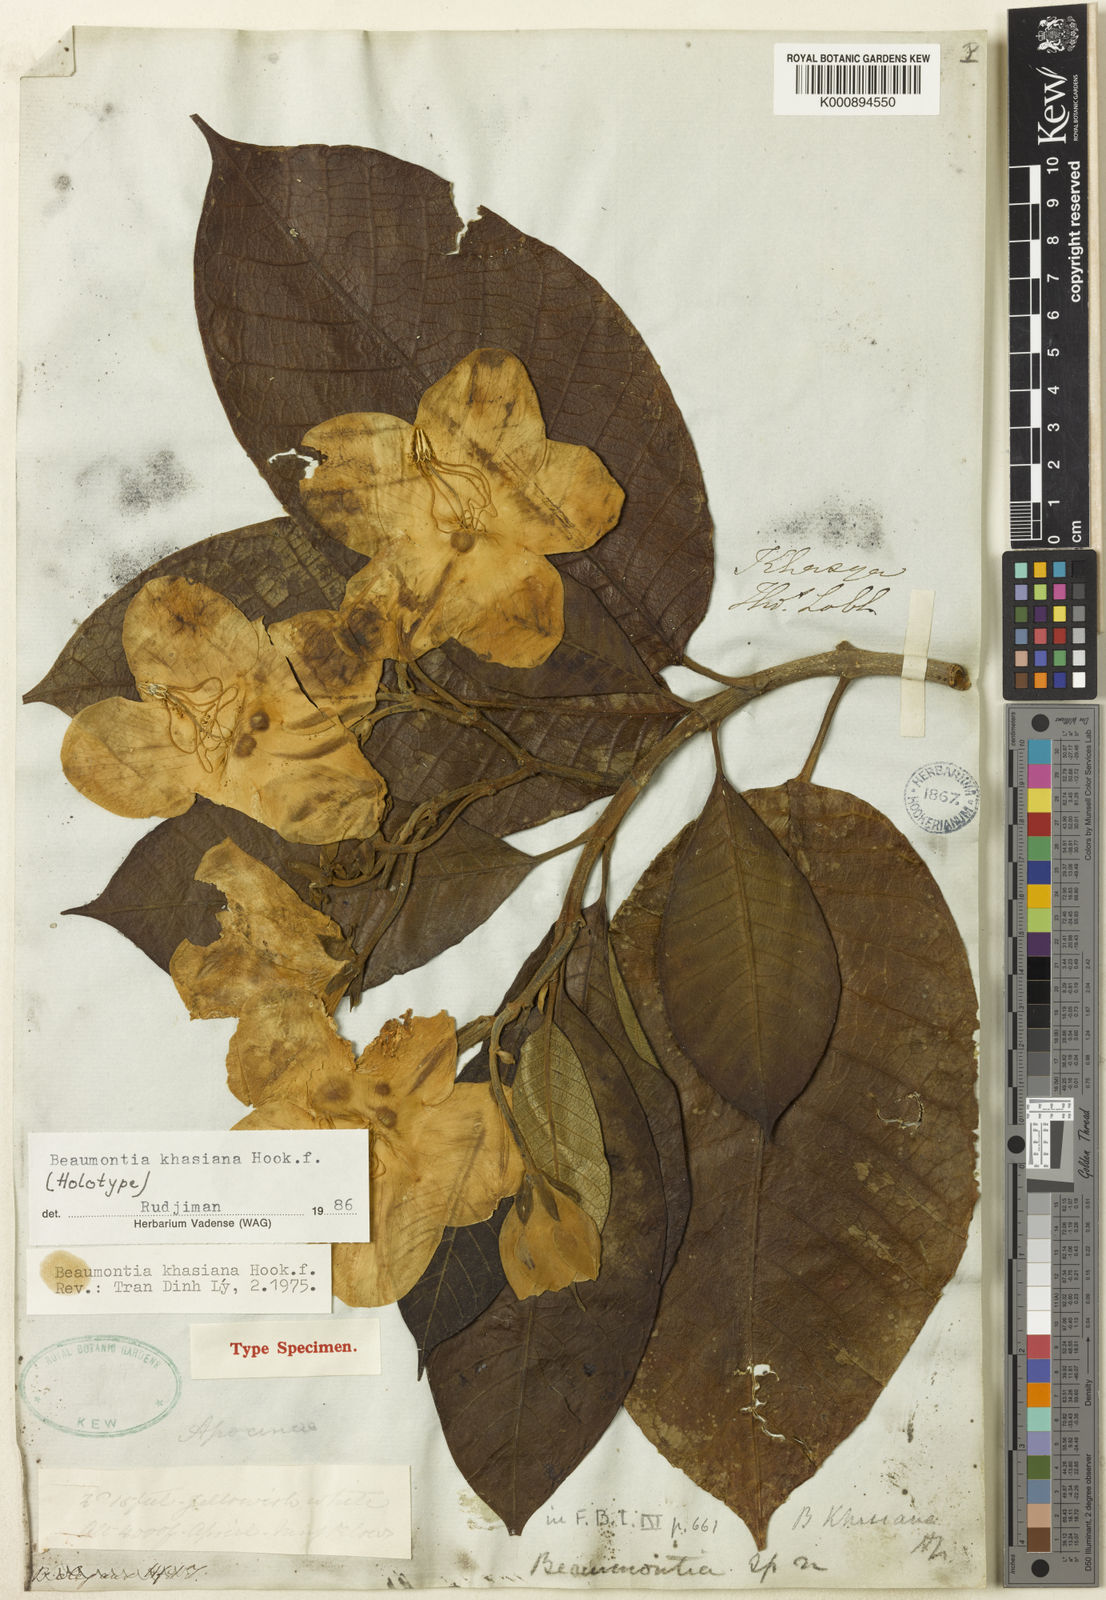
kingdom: Plantae
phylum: Tracheophyta
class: Magnoliopsida
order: Gentianales
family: Apocynaceae
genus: Beaumontia
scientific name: Beaumontia khasiana
